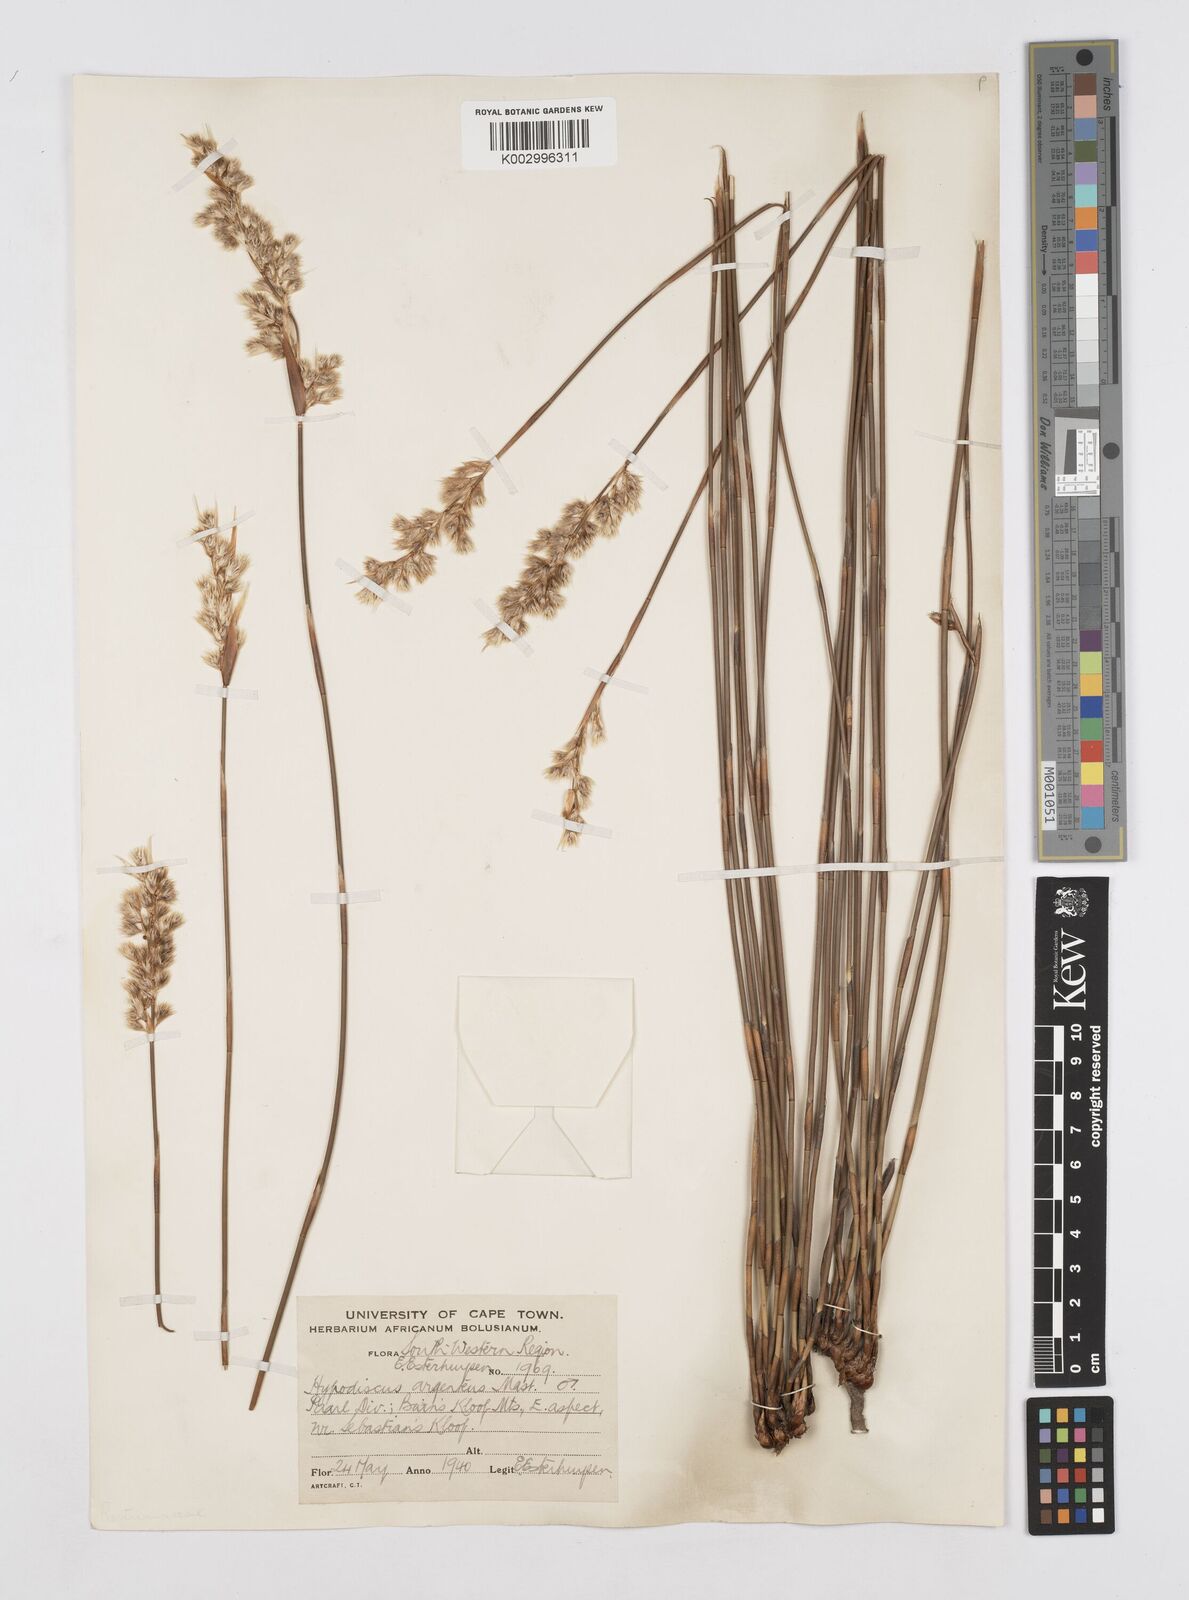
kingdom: Plantae
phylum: Tracheophyta
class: Liliopsida
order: Poales
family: Restionaceae
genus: Hypodiscus
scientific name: Hypodiscus argenteus
